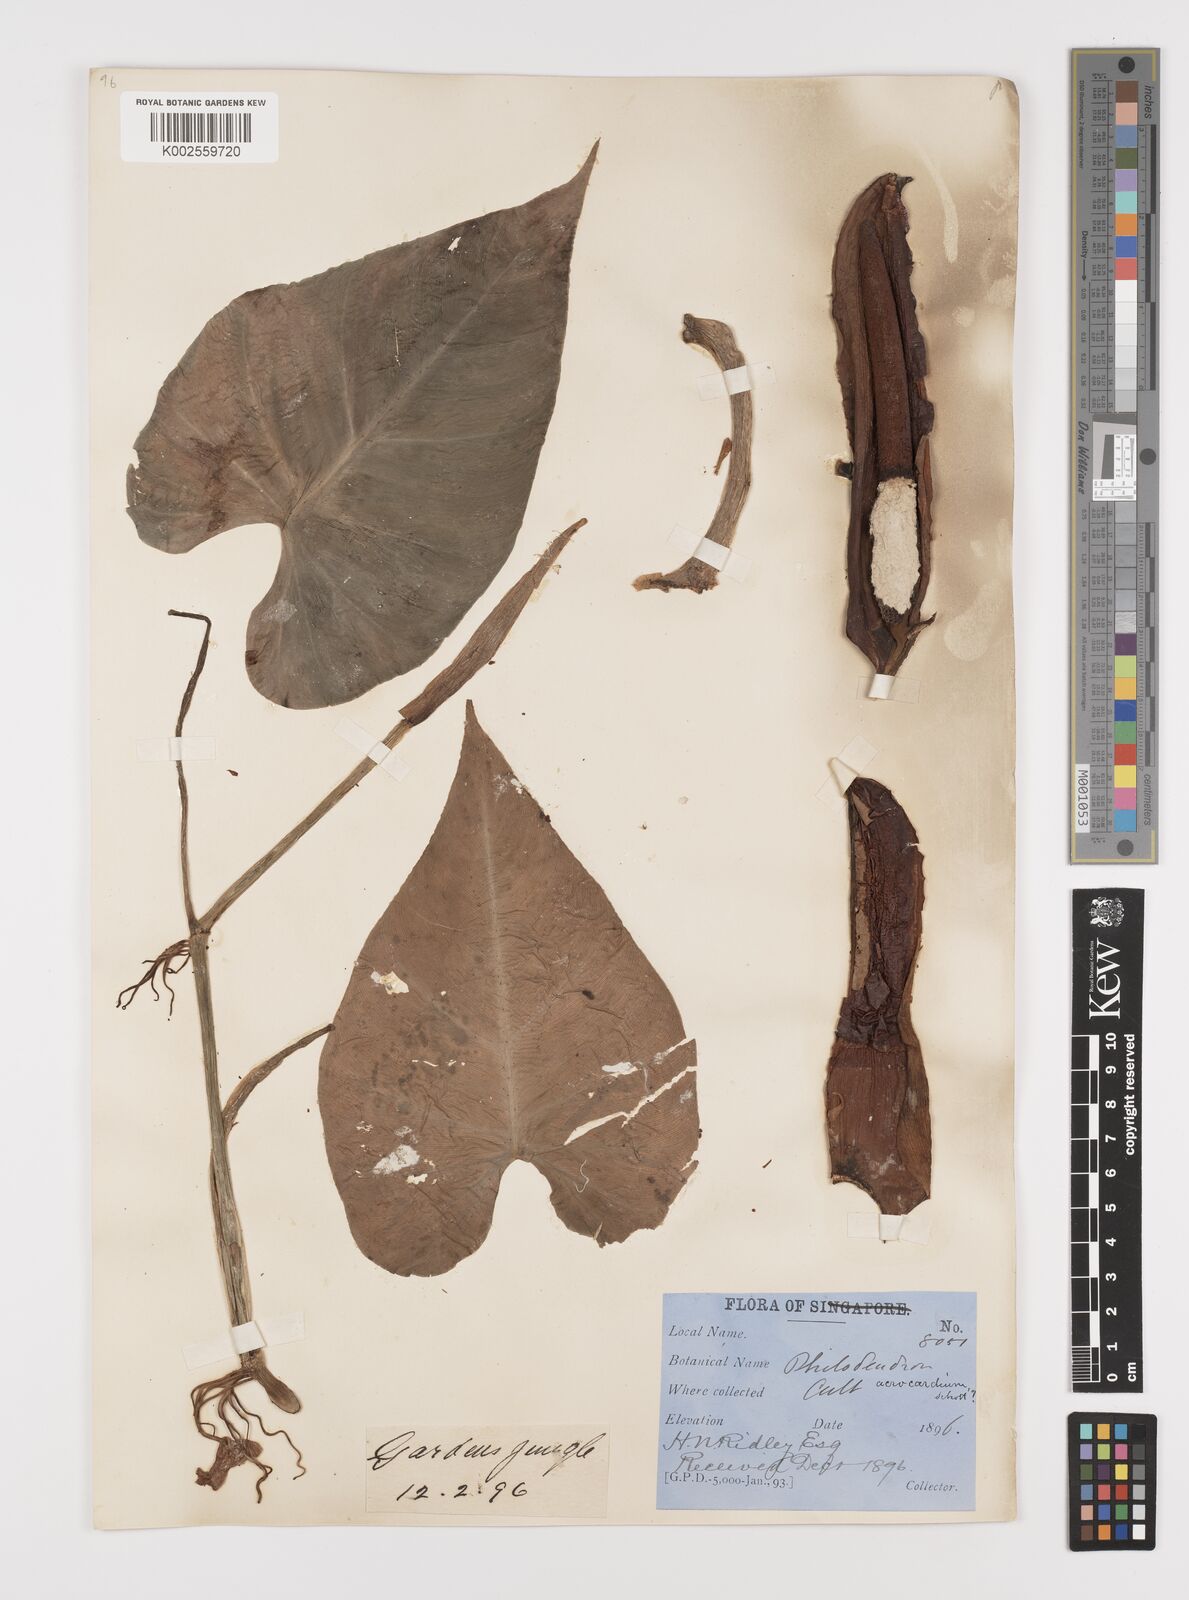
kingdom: Plantae
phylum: Tracheophyta
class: Liliopsida
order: Alismatales
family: Araceae
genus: Philodendron
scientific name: Philodendron hederaceum
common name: Vilevine
